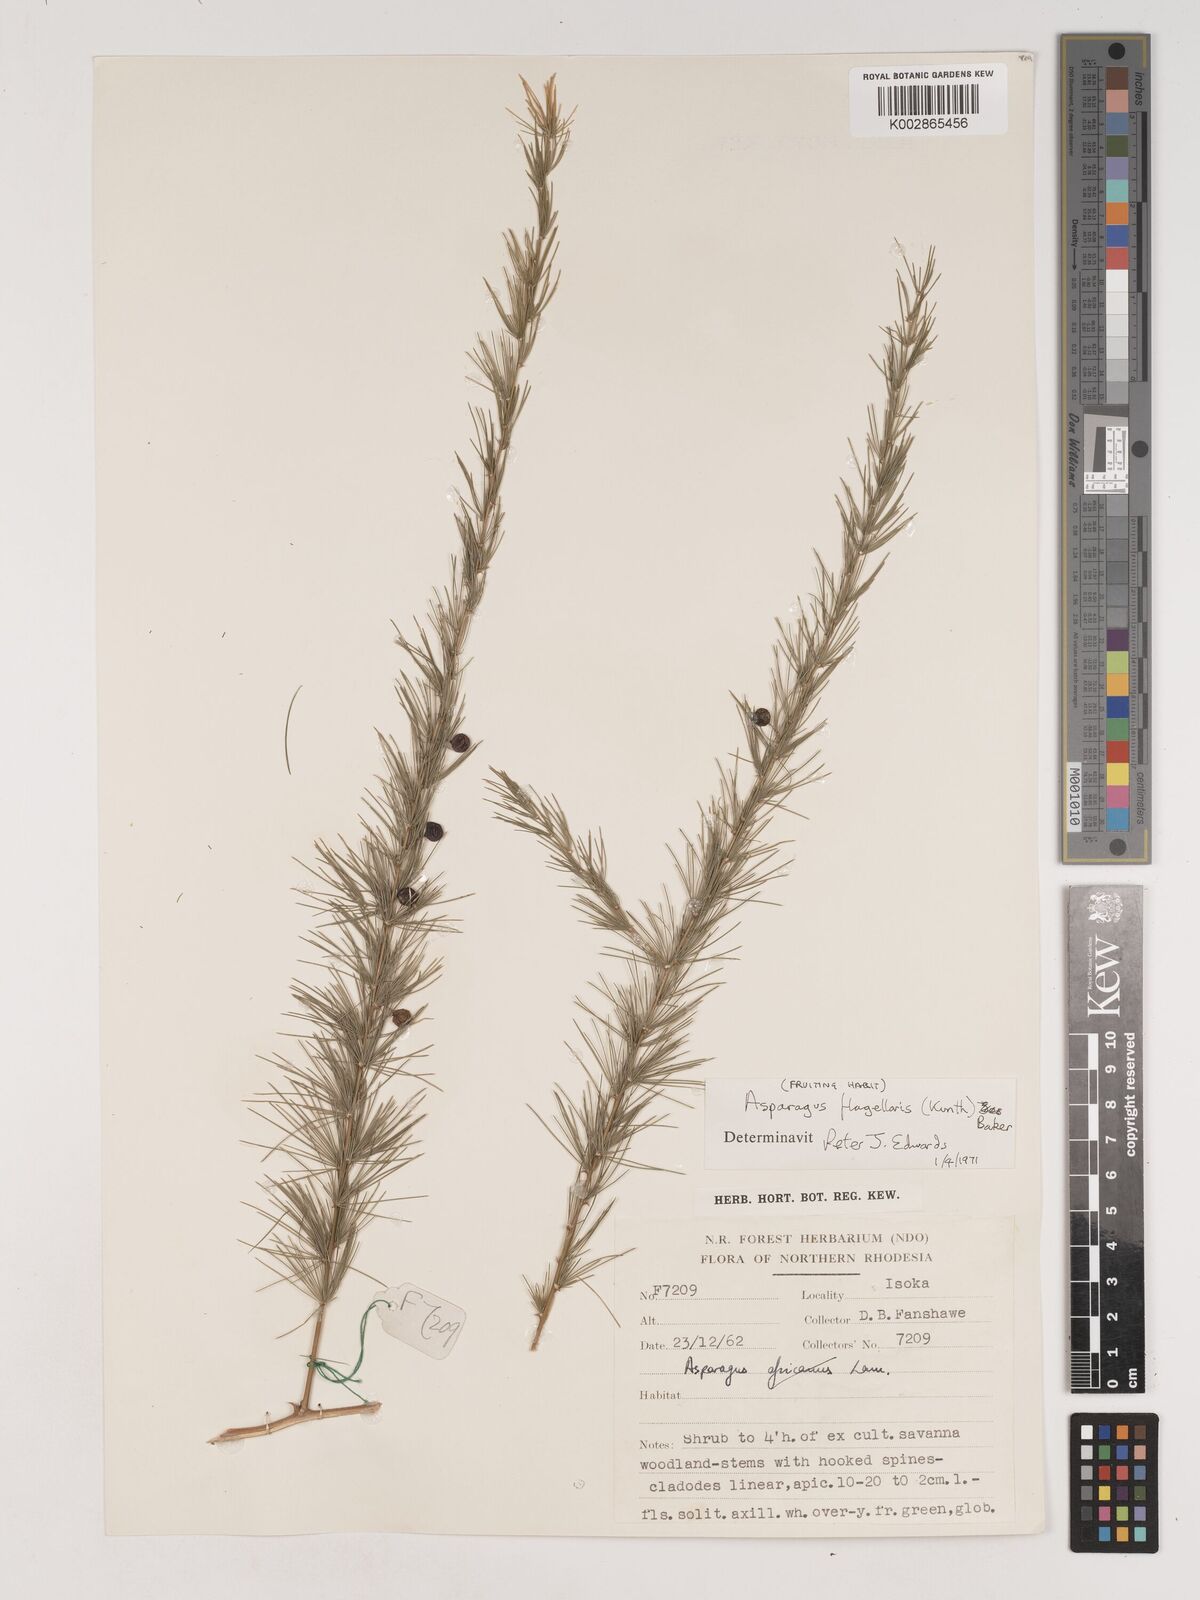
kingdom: Plantae
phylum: Tracheophyta
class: Liliopsida
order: Asparagales
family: Asparagaceae
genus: Asparagus
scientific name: Asparagus flagellaris
